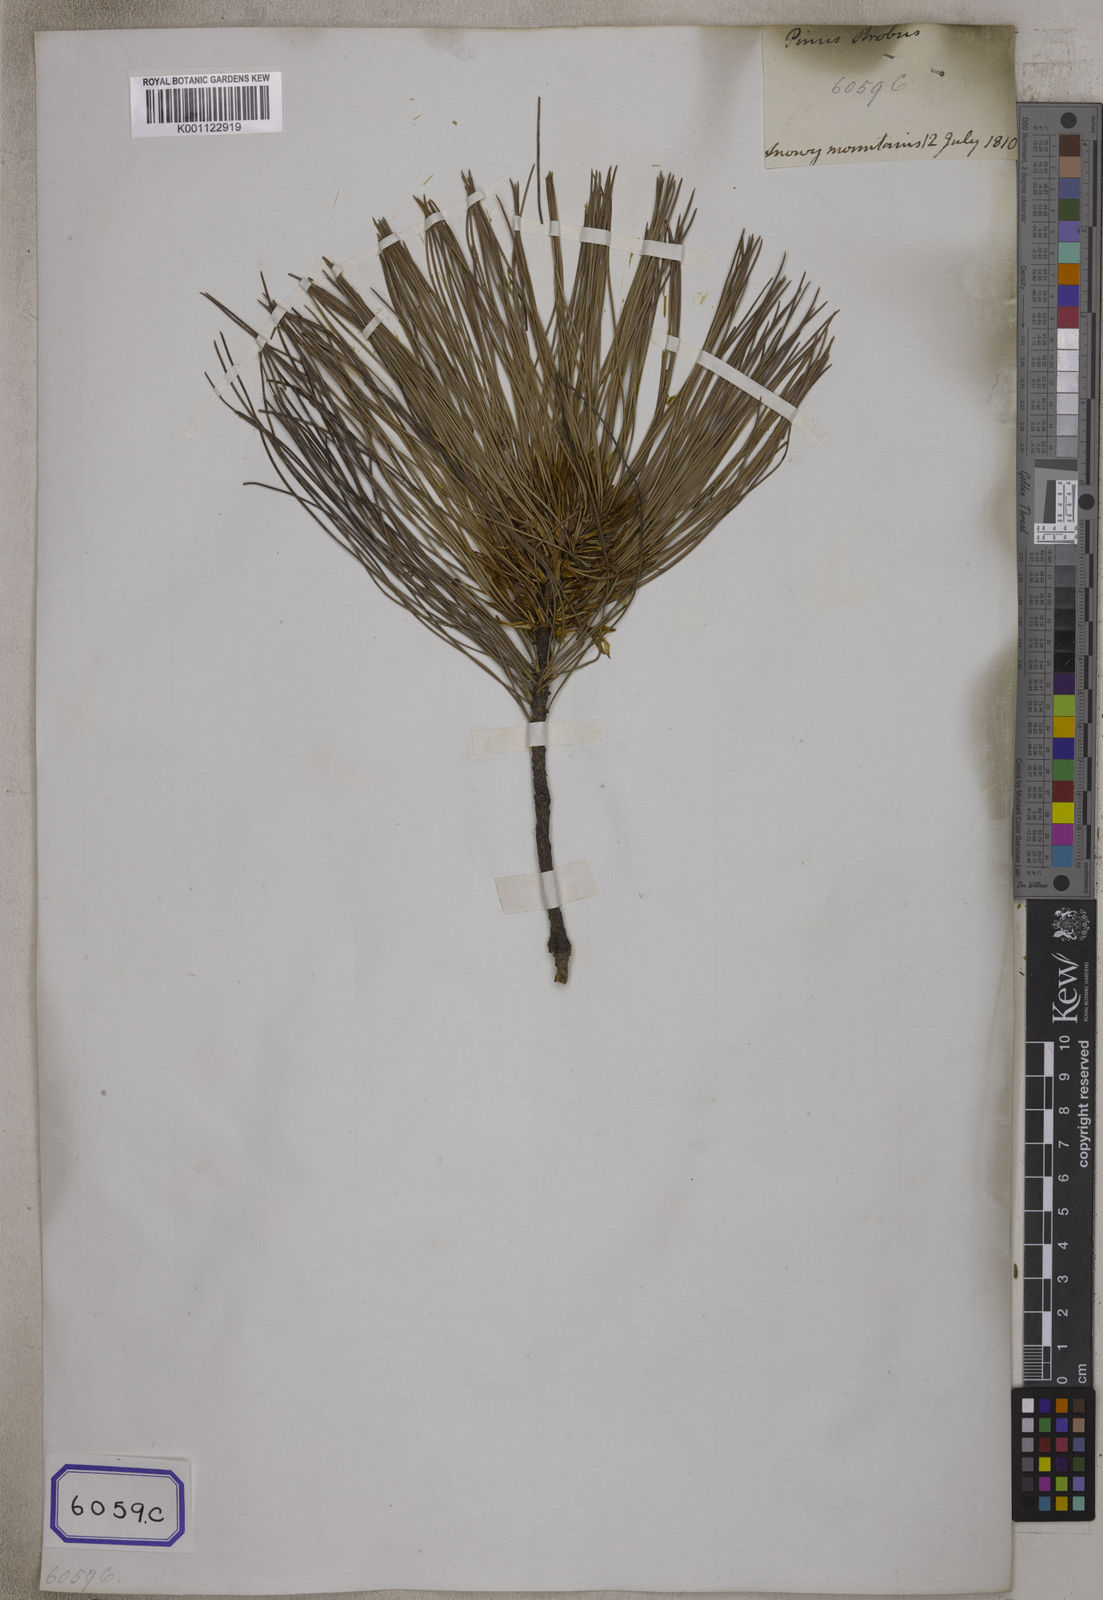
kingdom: Plantae
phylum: Tracheophyta
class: Pinopsida
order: Pinales
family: Pinaceae
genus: Pinus
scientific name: Pinus
